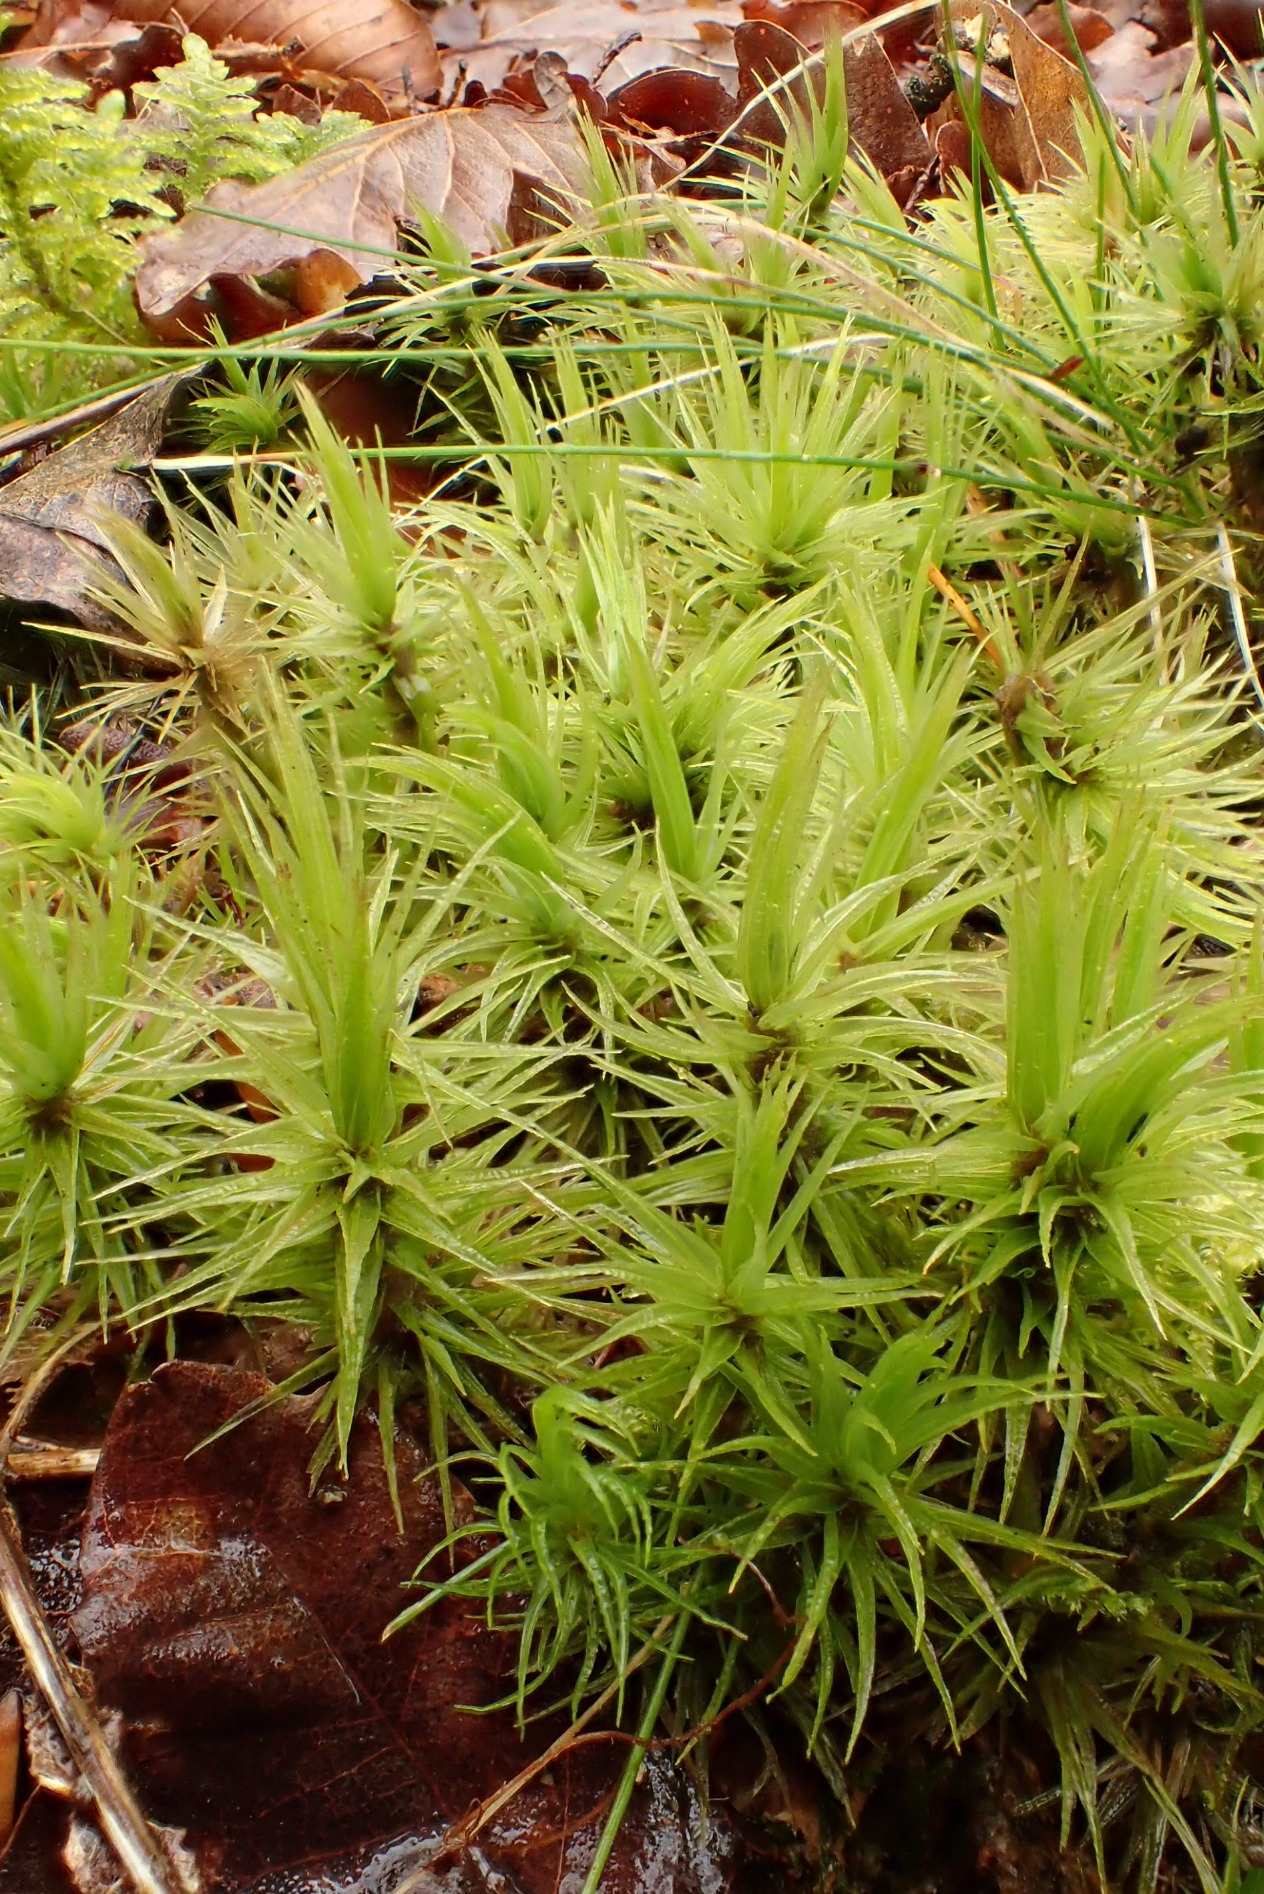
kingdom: Plantae
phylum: Bryophyta
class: Bryopsida
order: Dicranales
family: Dicranaceae
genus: Dicranum
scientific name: Dicranum polysetum
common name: Bølgebladet kløvtand
